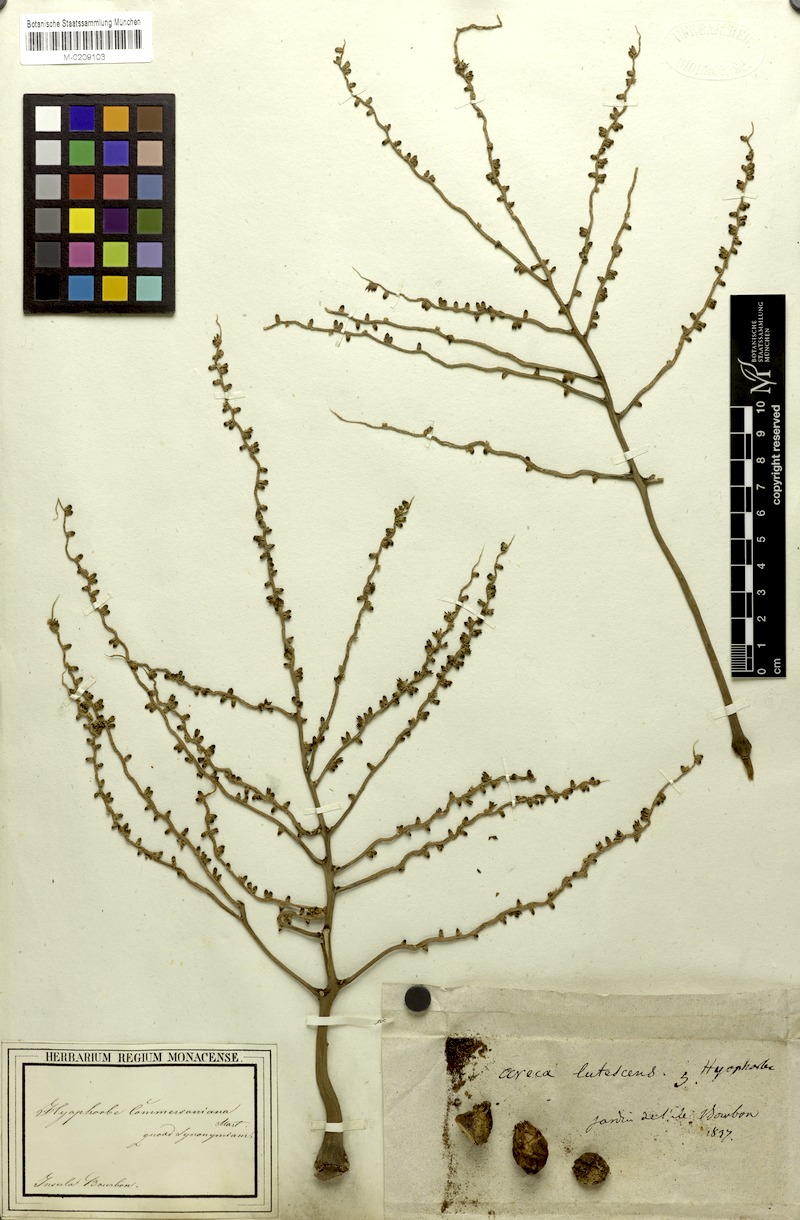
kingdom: Plantae
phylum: Tracheophyta
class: Liliopsida
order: Arecales
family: Arecaceae
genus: Hyophorbe
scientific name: Hyophorbe indica
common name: Palmiste poison
